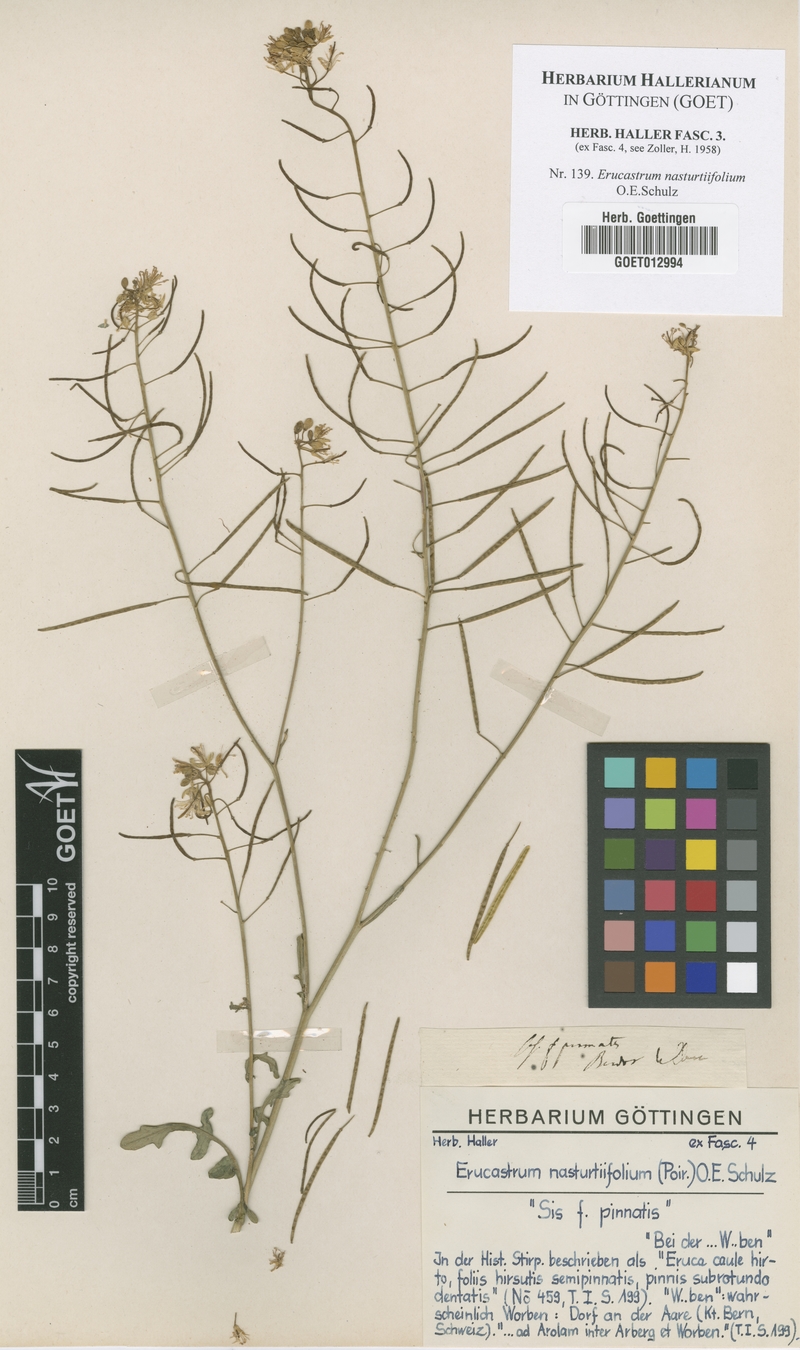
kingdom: Plantae
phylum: Tracheophyta
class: Magnoliopsida
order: Brassicales
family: Brassicaceae
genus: Erucastrum
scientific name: Erucastrum nasturtiifolium
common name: Watercress-leaf rocket
